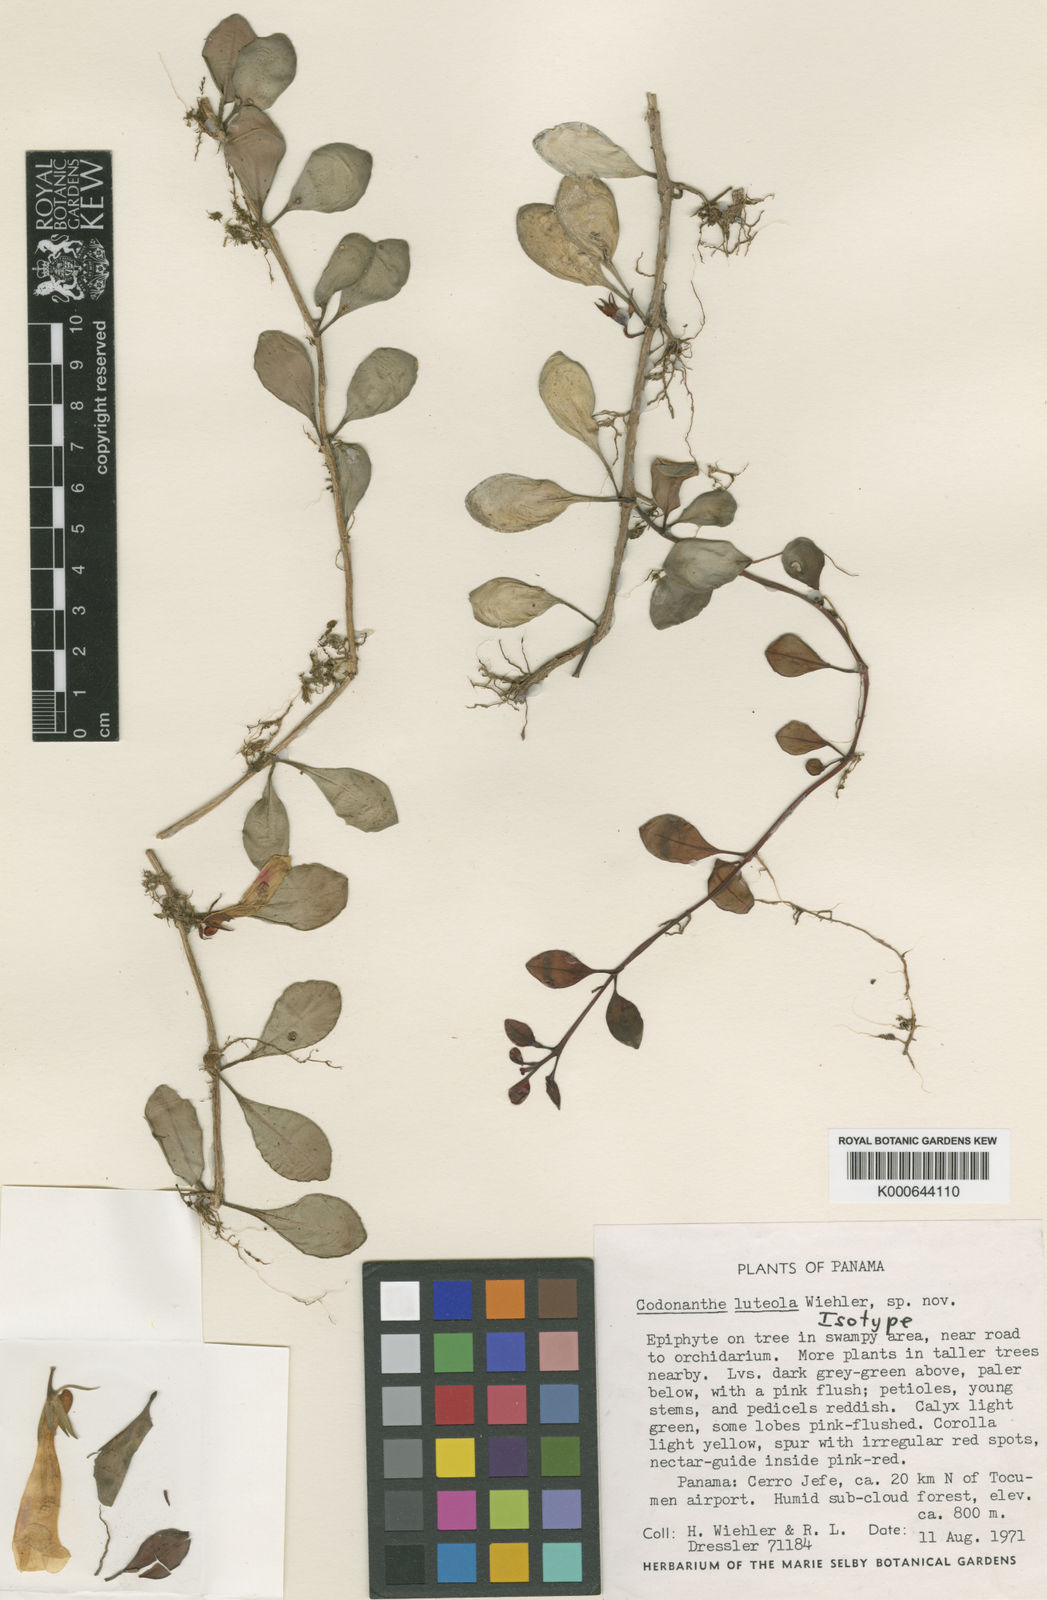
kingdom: Plantae
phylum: Tracheophyta
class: Magnoliopsida
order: Lamiales
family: Gesneriaceae
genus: Codonanthopsis
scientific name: Codonanthopsis luteola
